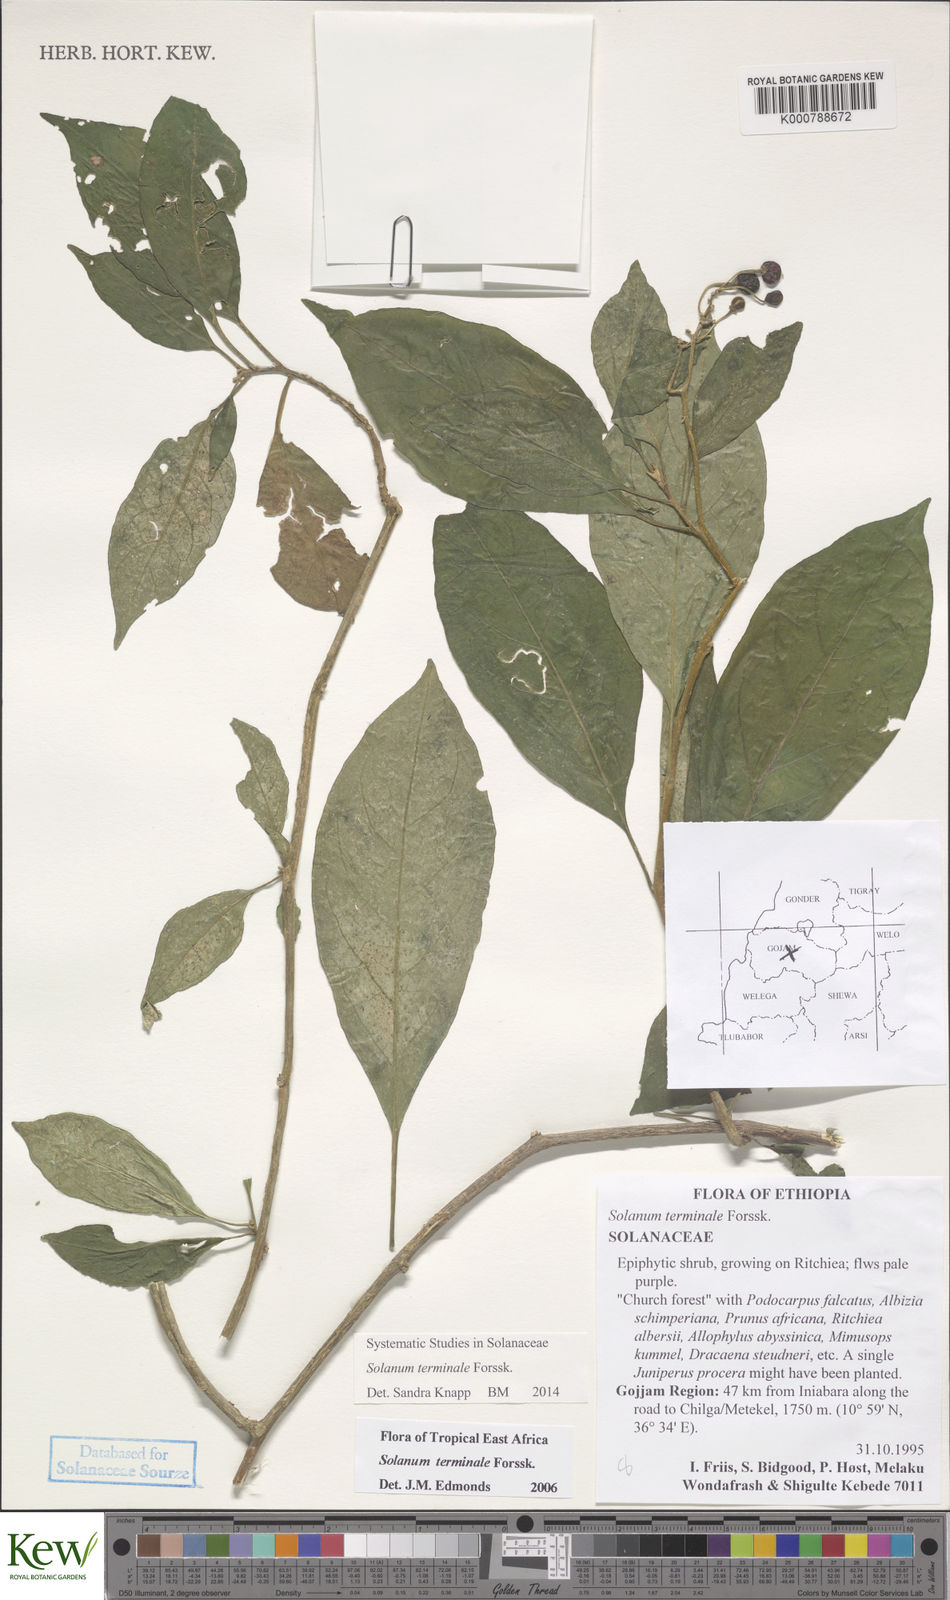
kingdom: Plantae
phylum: Tracheophyta
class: Magnoliopsida
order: Solanales
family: Solanaceae
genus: Solanum
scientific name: Solanum terminale
